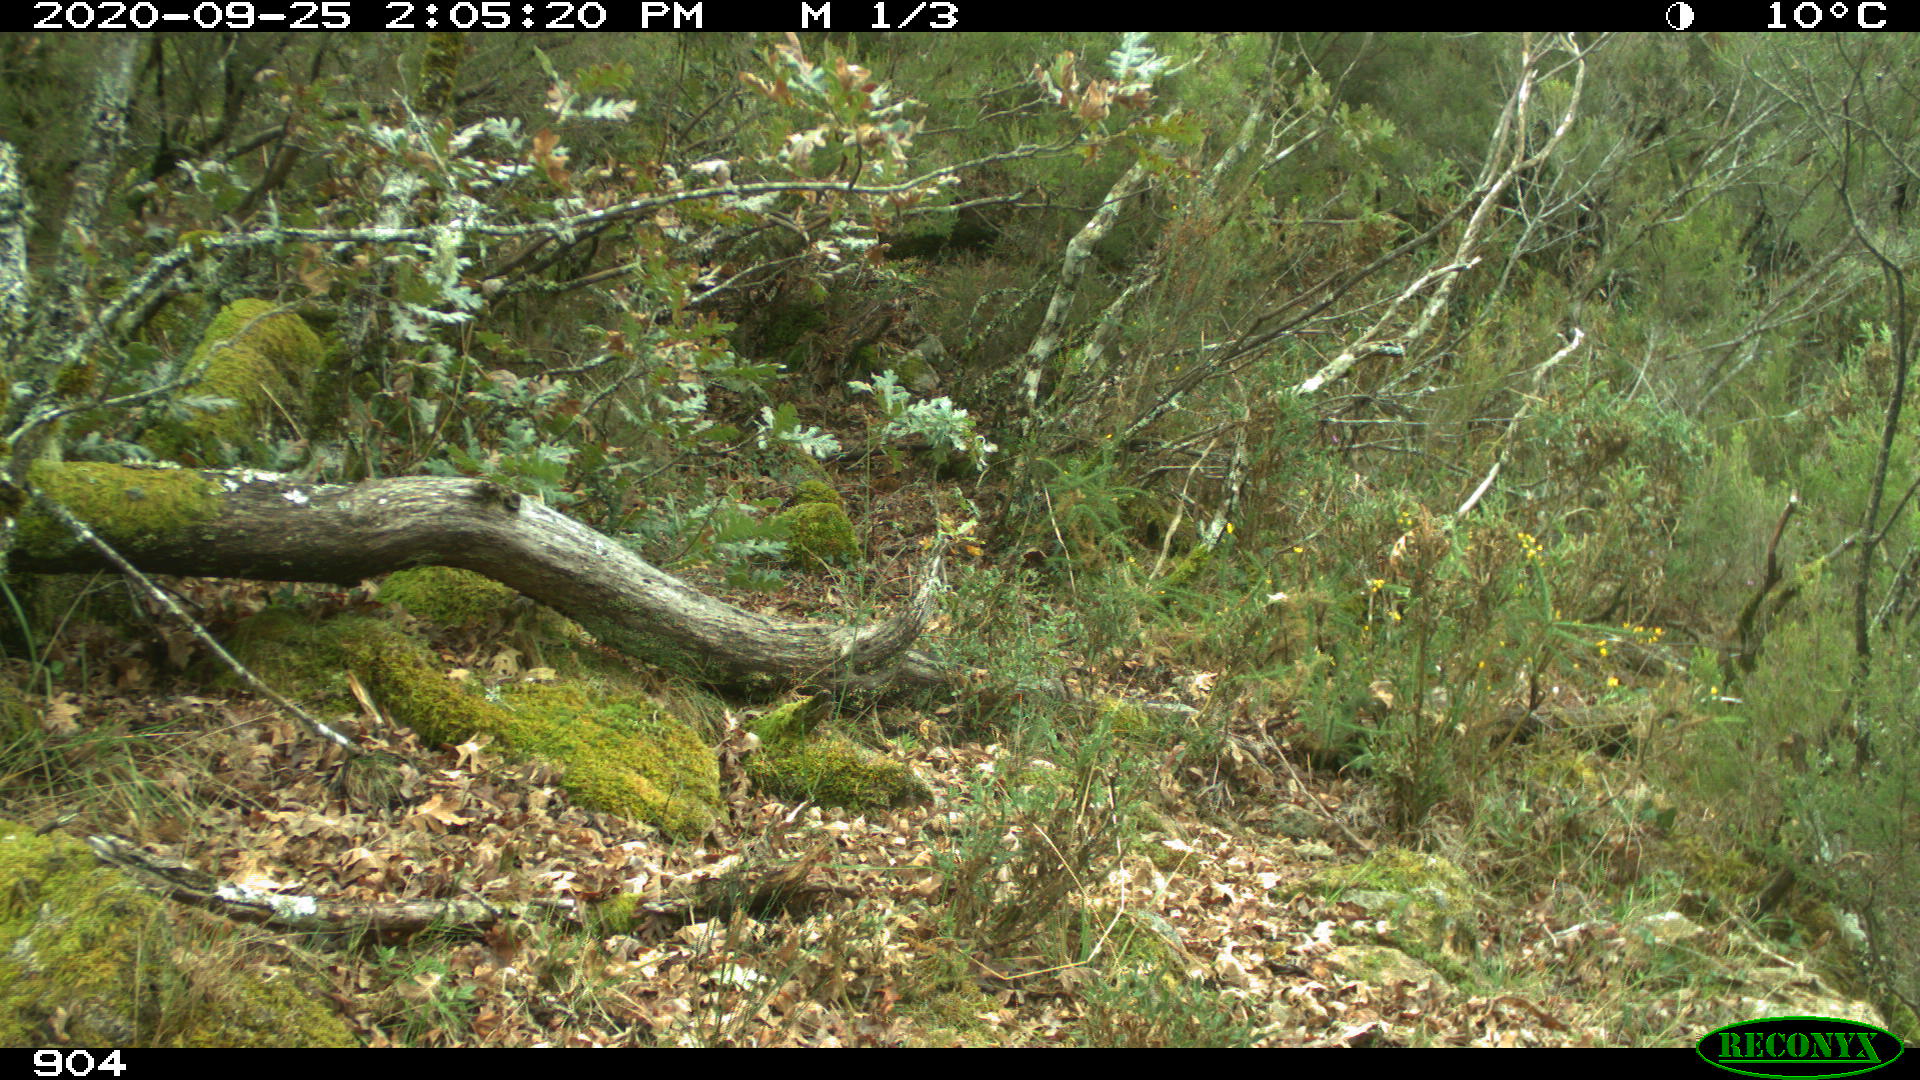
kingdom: Animalia
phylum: Chordata
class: Mammalia
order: Artiodactyla
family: Cervidae
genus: Capreolus
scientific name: Capreolus capreolus
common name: Western roe deer
